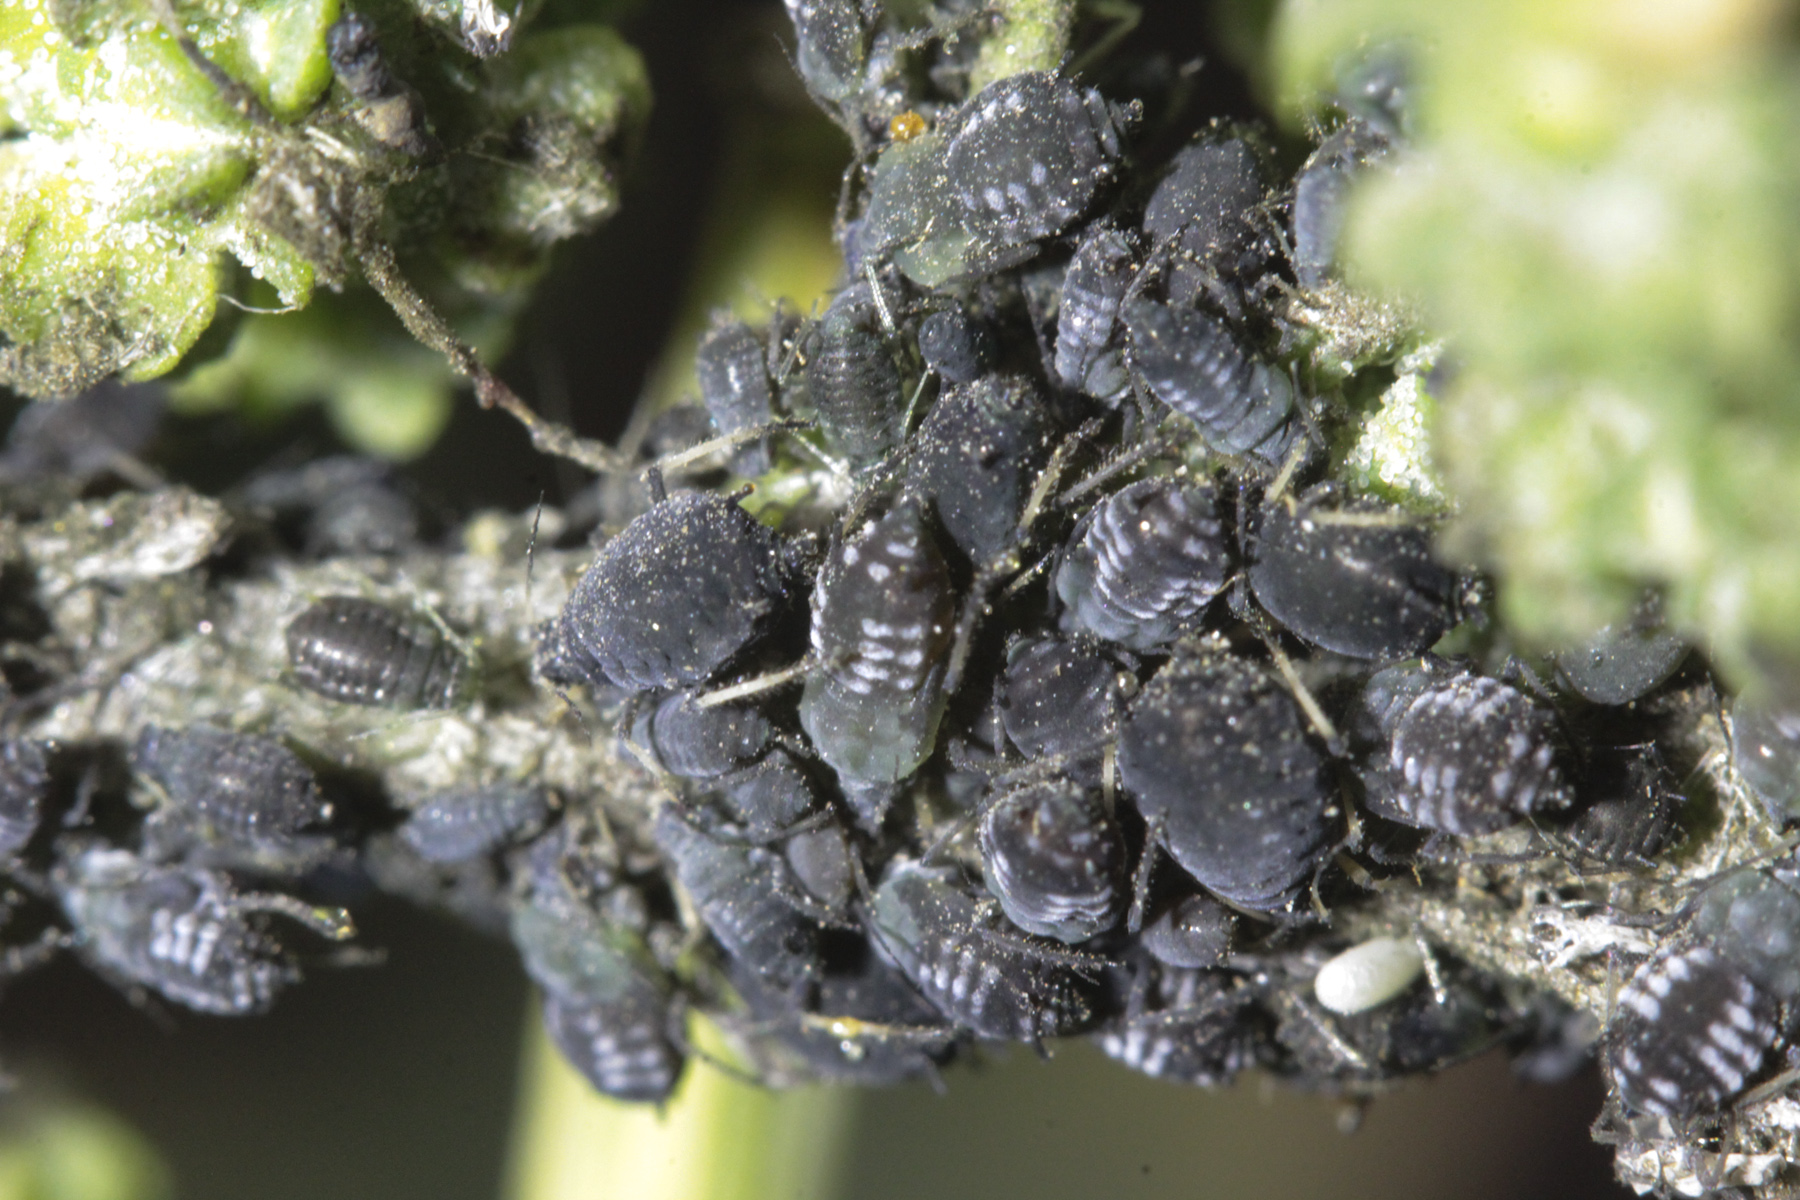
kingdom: Animalia
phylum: Arthropoda
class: Insecta
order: Hemiptera
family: Aphididae
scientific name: Aphididae
